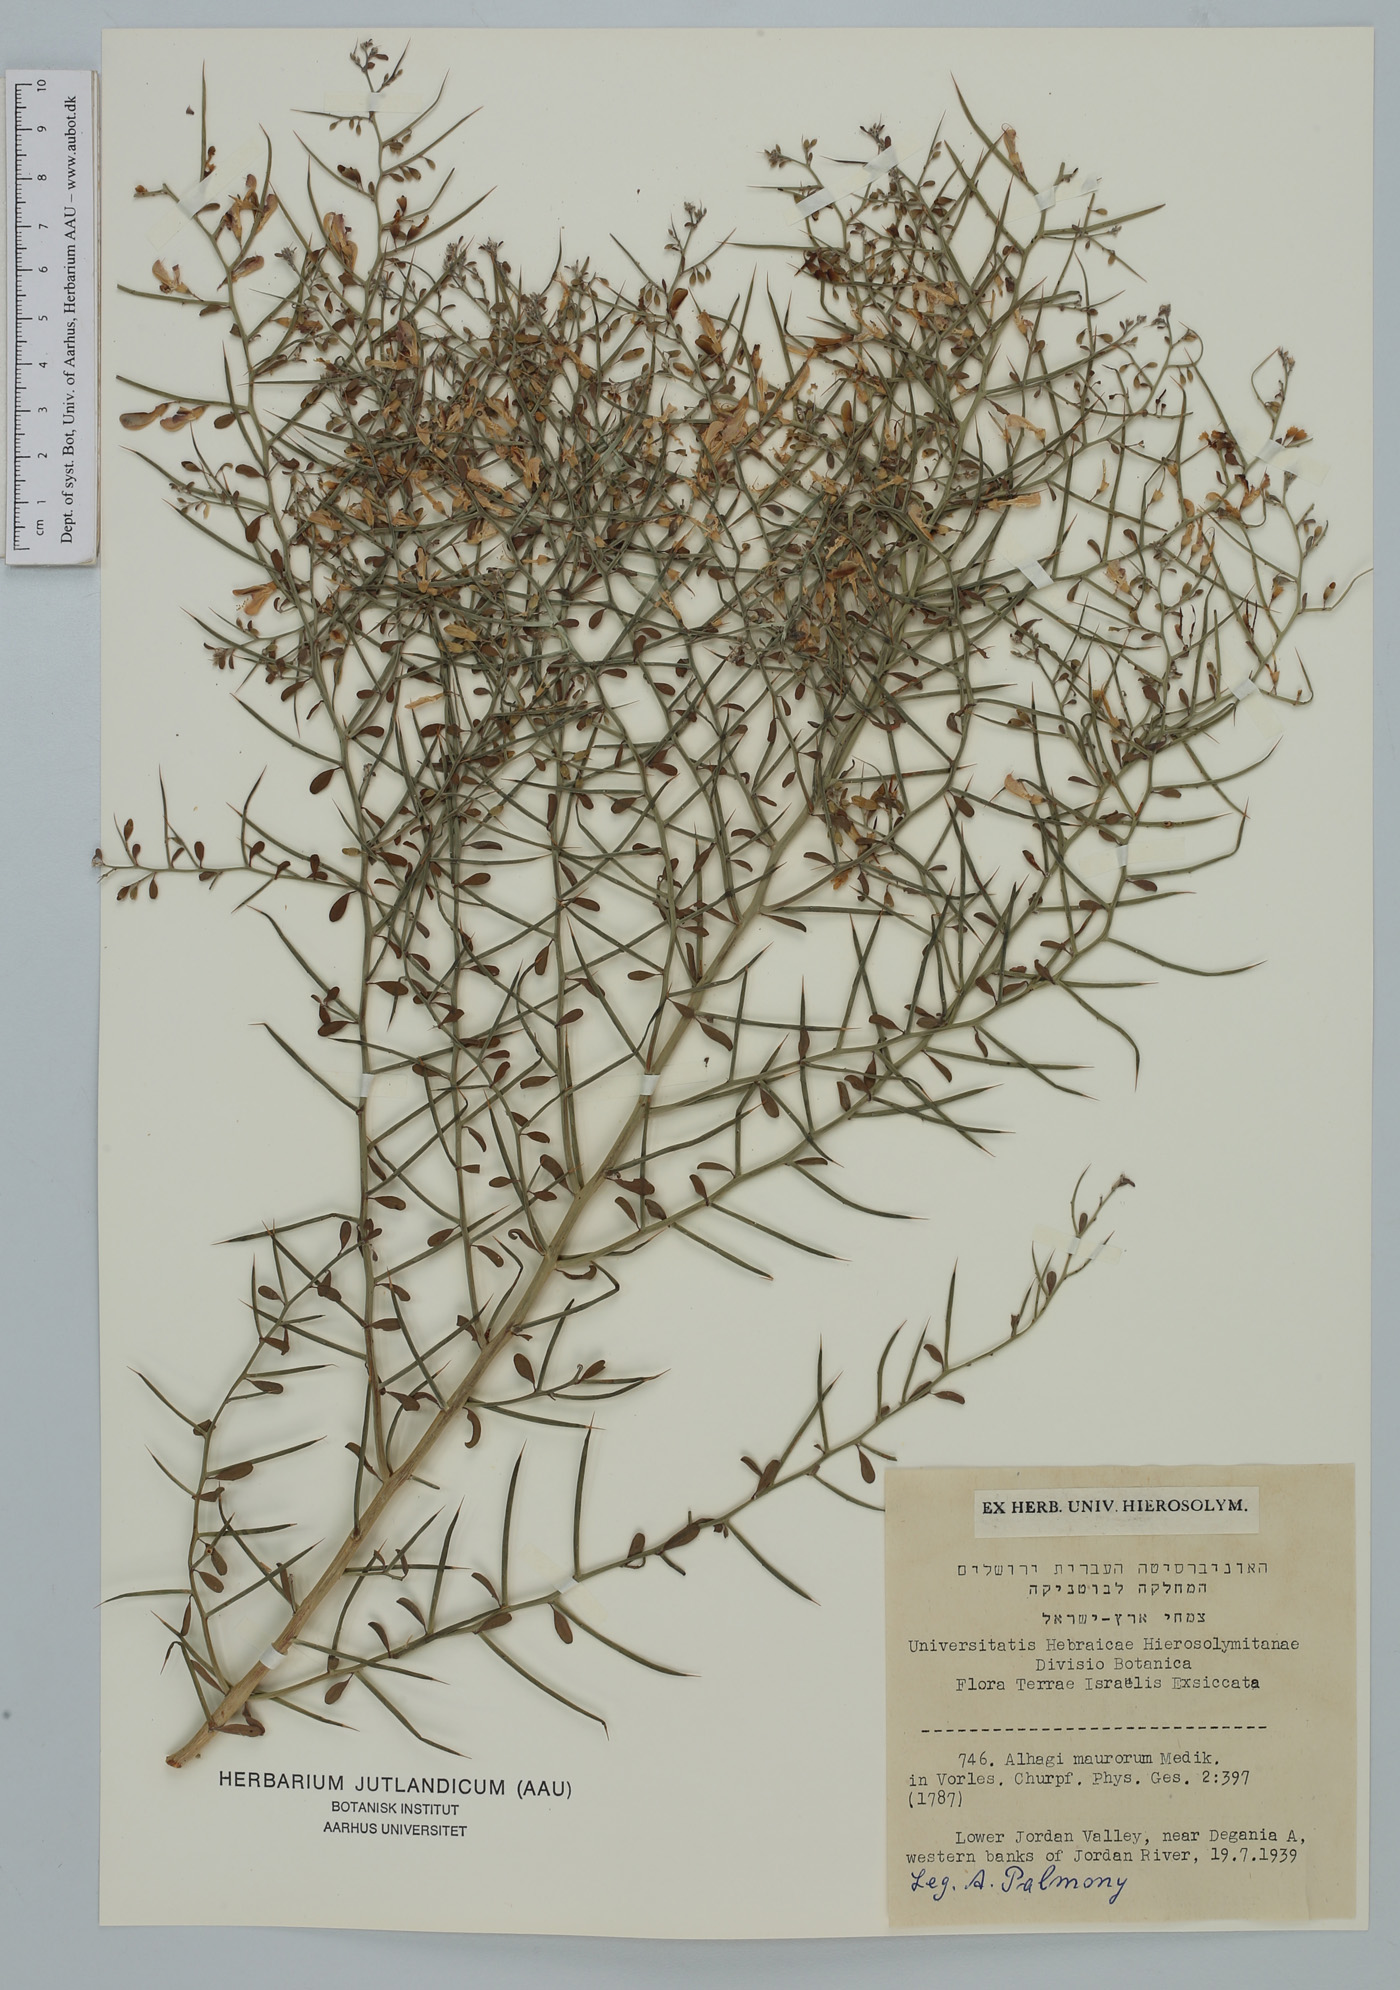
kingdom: Plantae
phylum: Tracheophyta
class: Magnoliopsida
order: Fabales
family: Fabaceae
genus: Alhagi
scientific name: Alhagi maurorum
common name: Camelthorn
